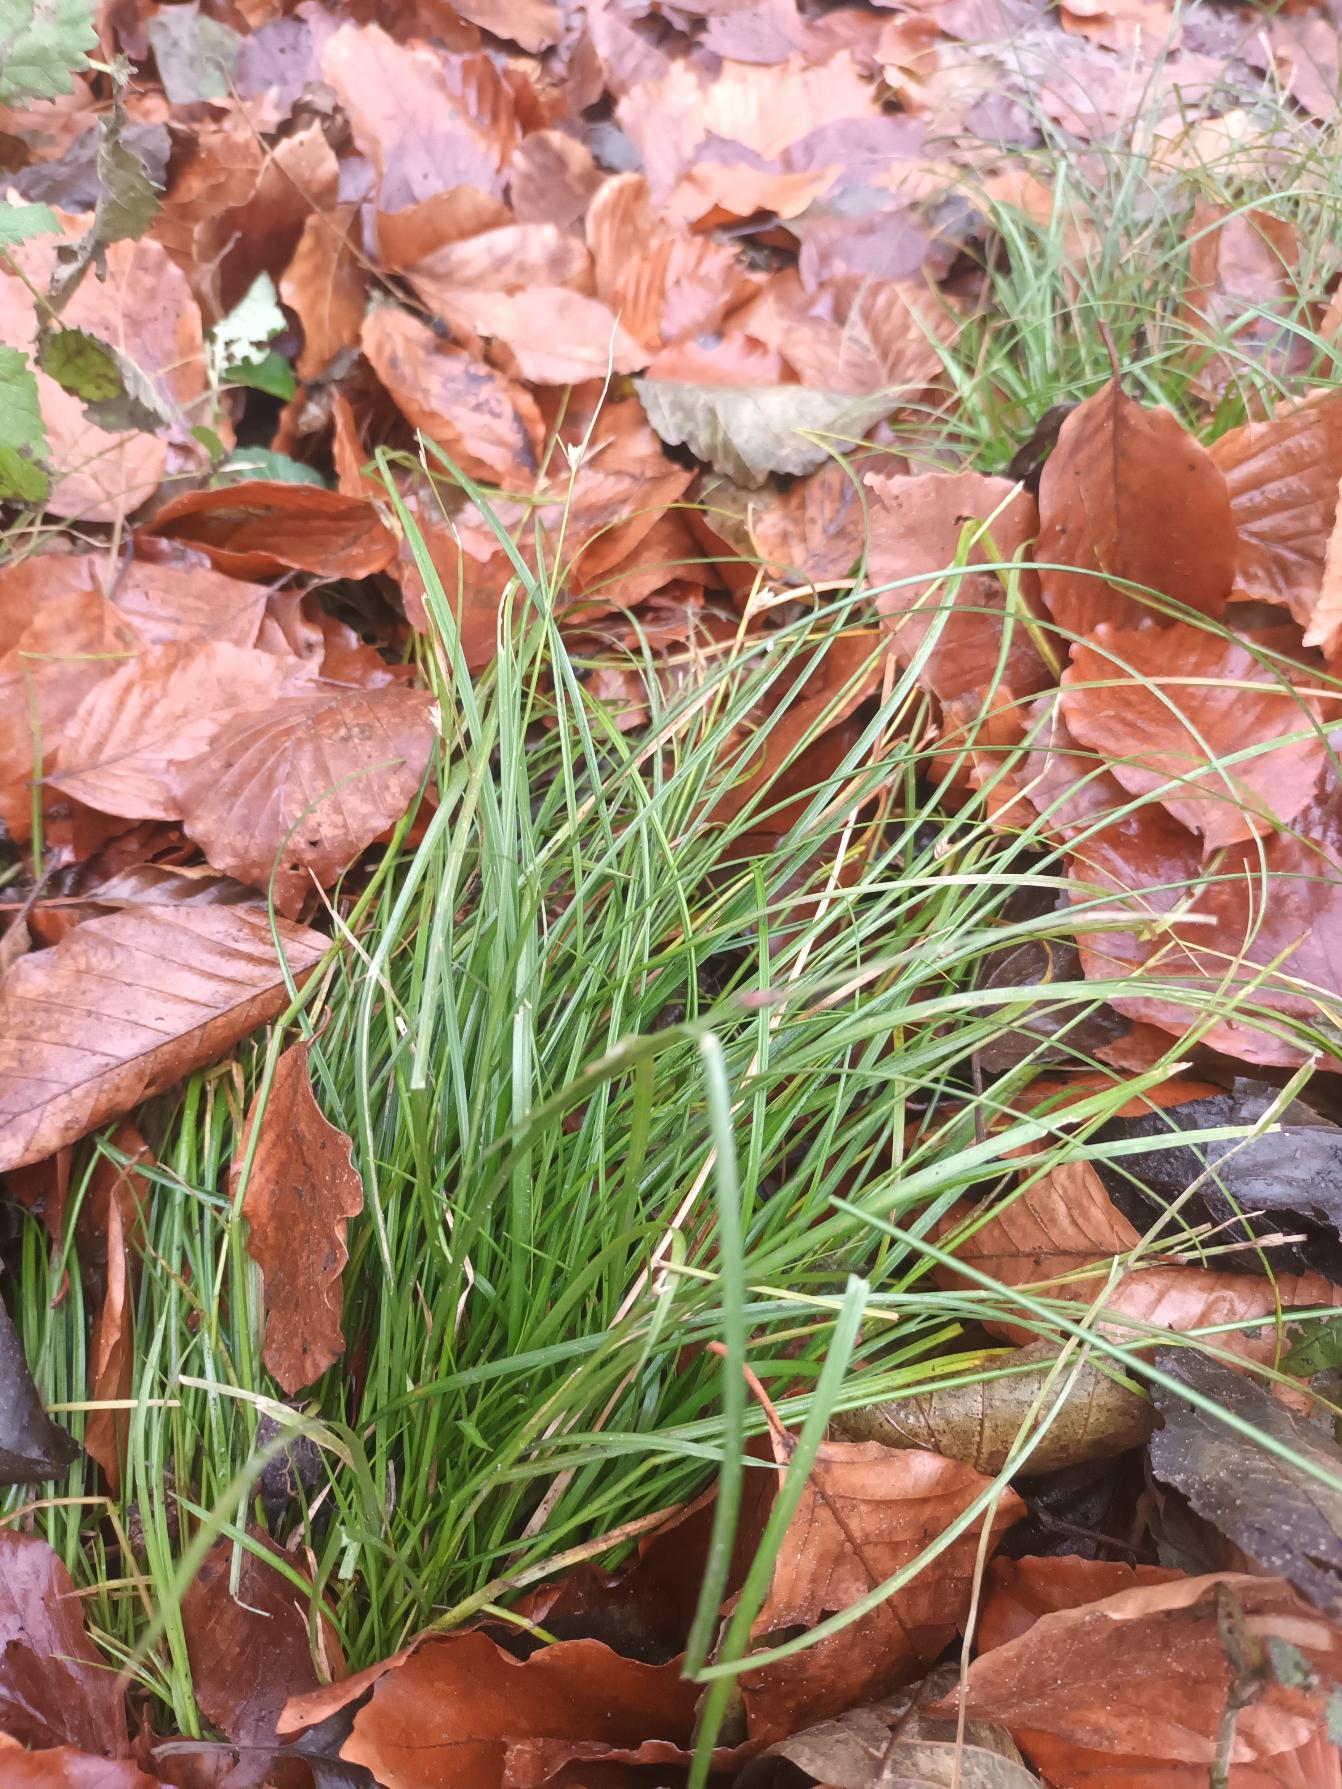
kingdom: Plantae
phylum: Tracheophyta
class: Liliopsida
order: Poales
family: Cyperaceae
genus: Carex
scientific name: Carex remota
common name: Akselblomstret star
